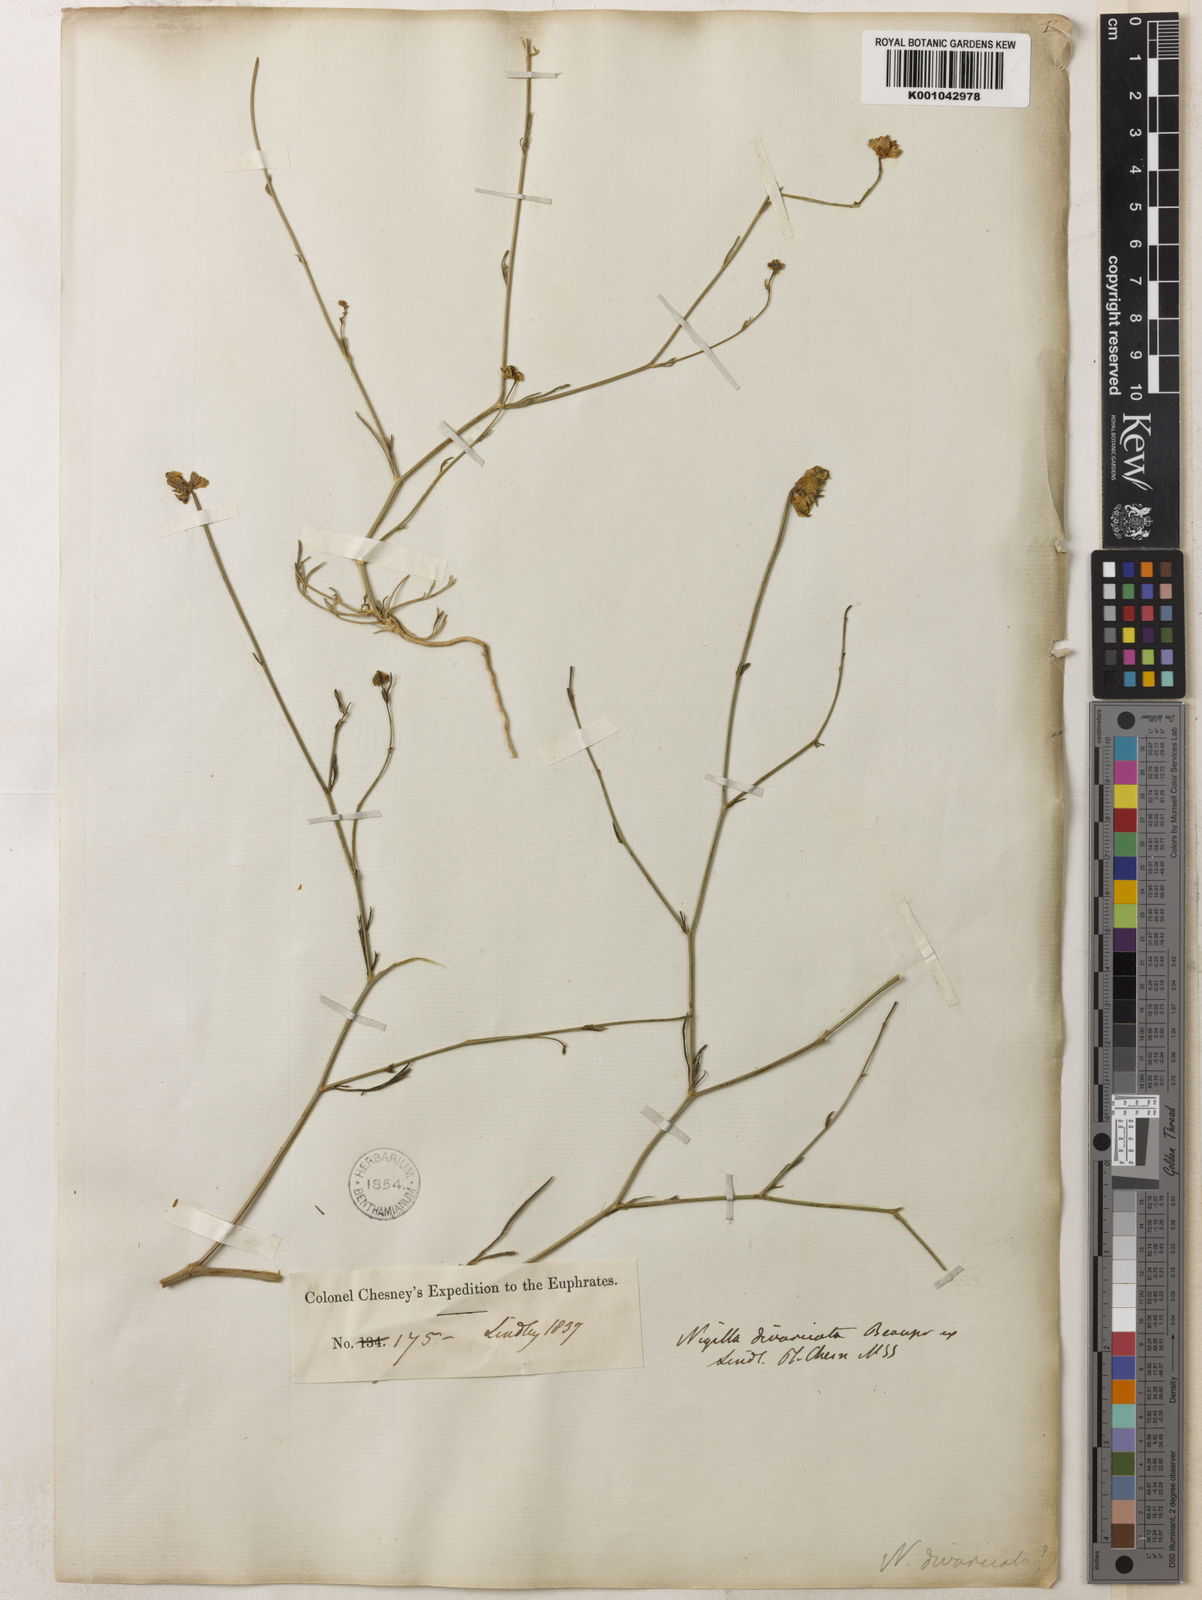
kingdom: Plantae
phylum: Tracheophyta
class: Magnoliopsida
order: Ranunculales
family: Ranunculaceae
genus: Nigella
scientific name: Nigella arvensis
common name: Wild fennel-flower
